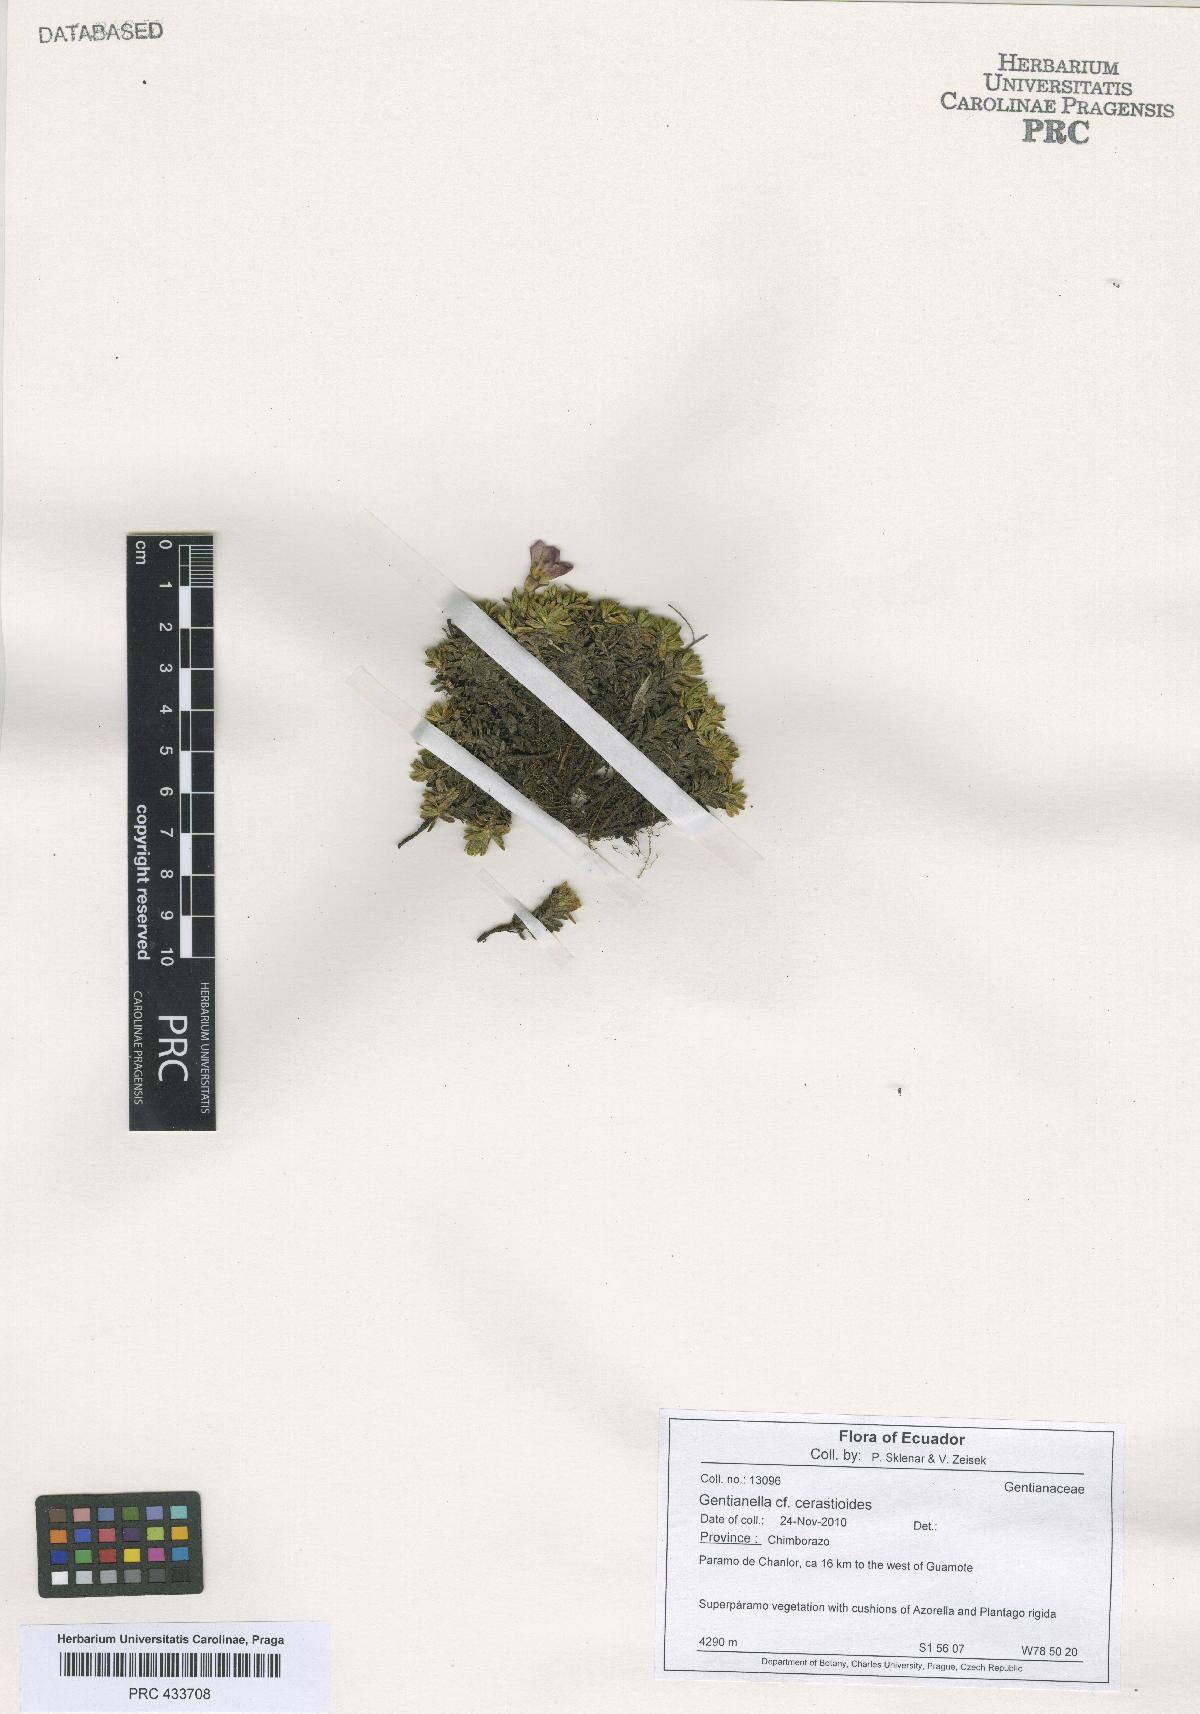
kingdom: Plantae
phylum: Tracheophyta
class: Magnoliopsida
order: Gentianales
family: Gentianaceae
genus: Gentiana
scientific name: Gentiana sedifolia
